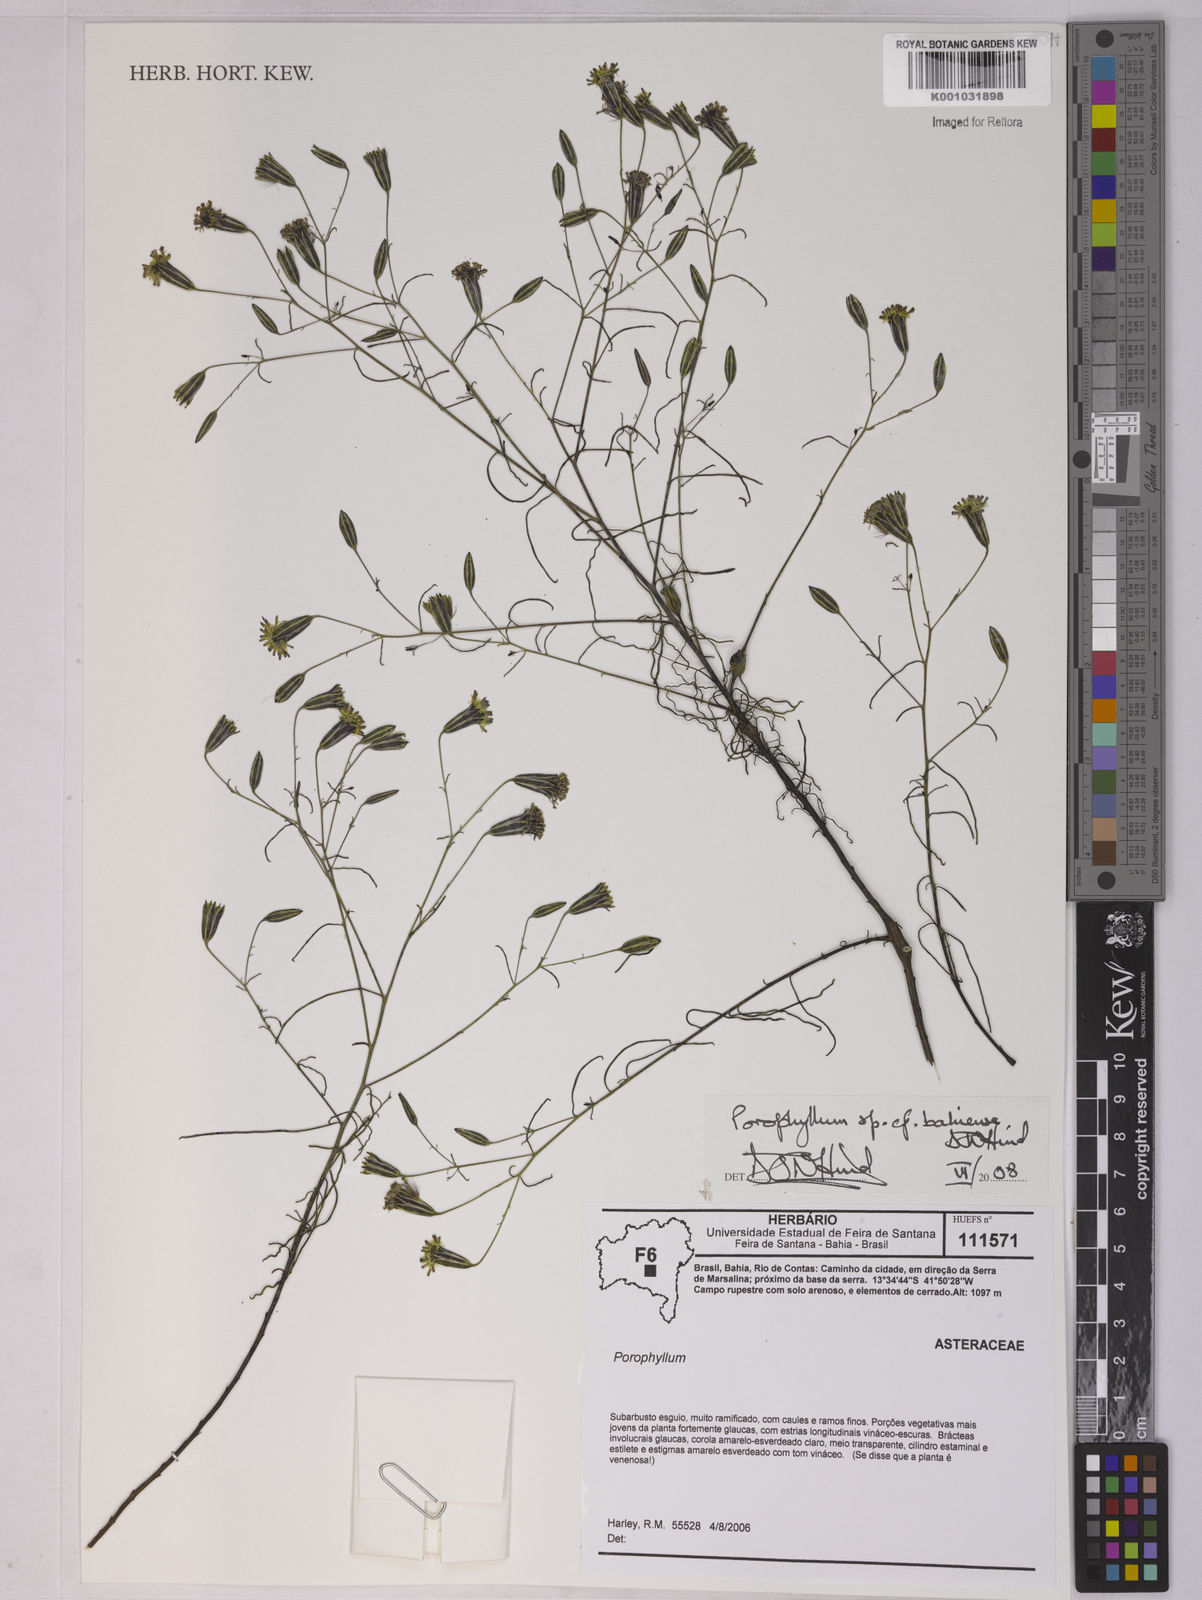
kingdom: Plantae
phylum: Tracheophyta
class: Magnoliopsida
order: Asterales
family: Asteraceae
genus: Porophyllum
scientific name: Porophyllum bahiense
